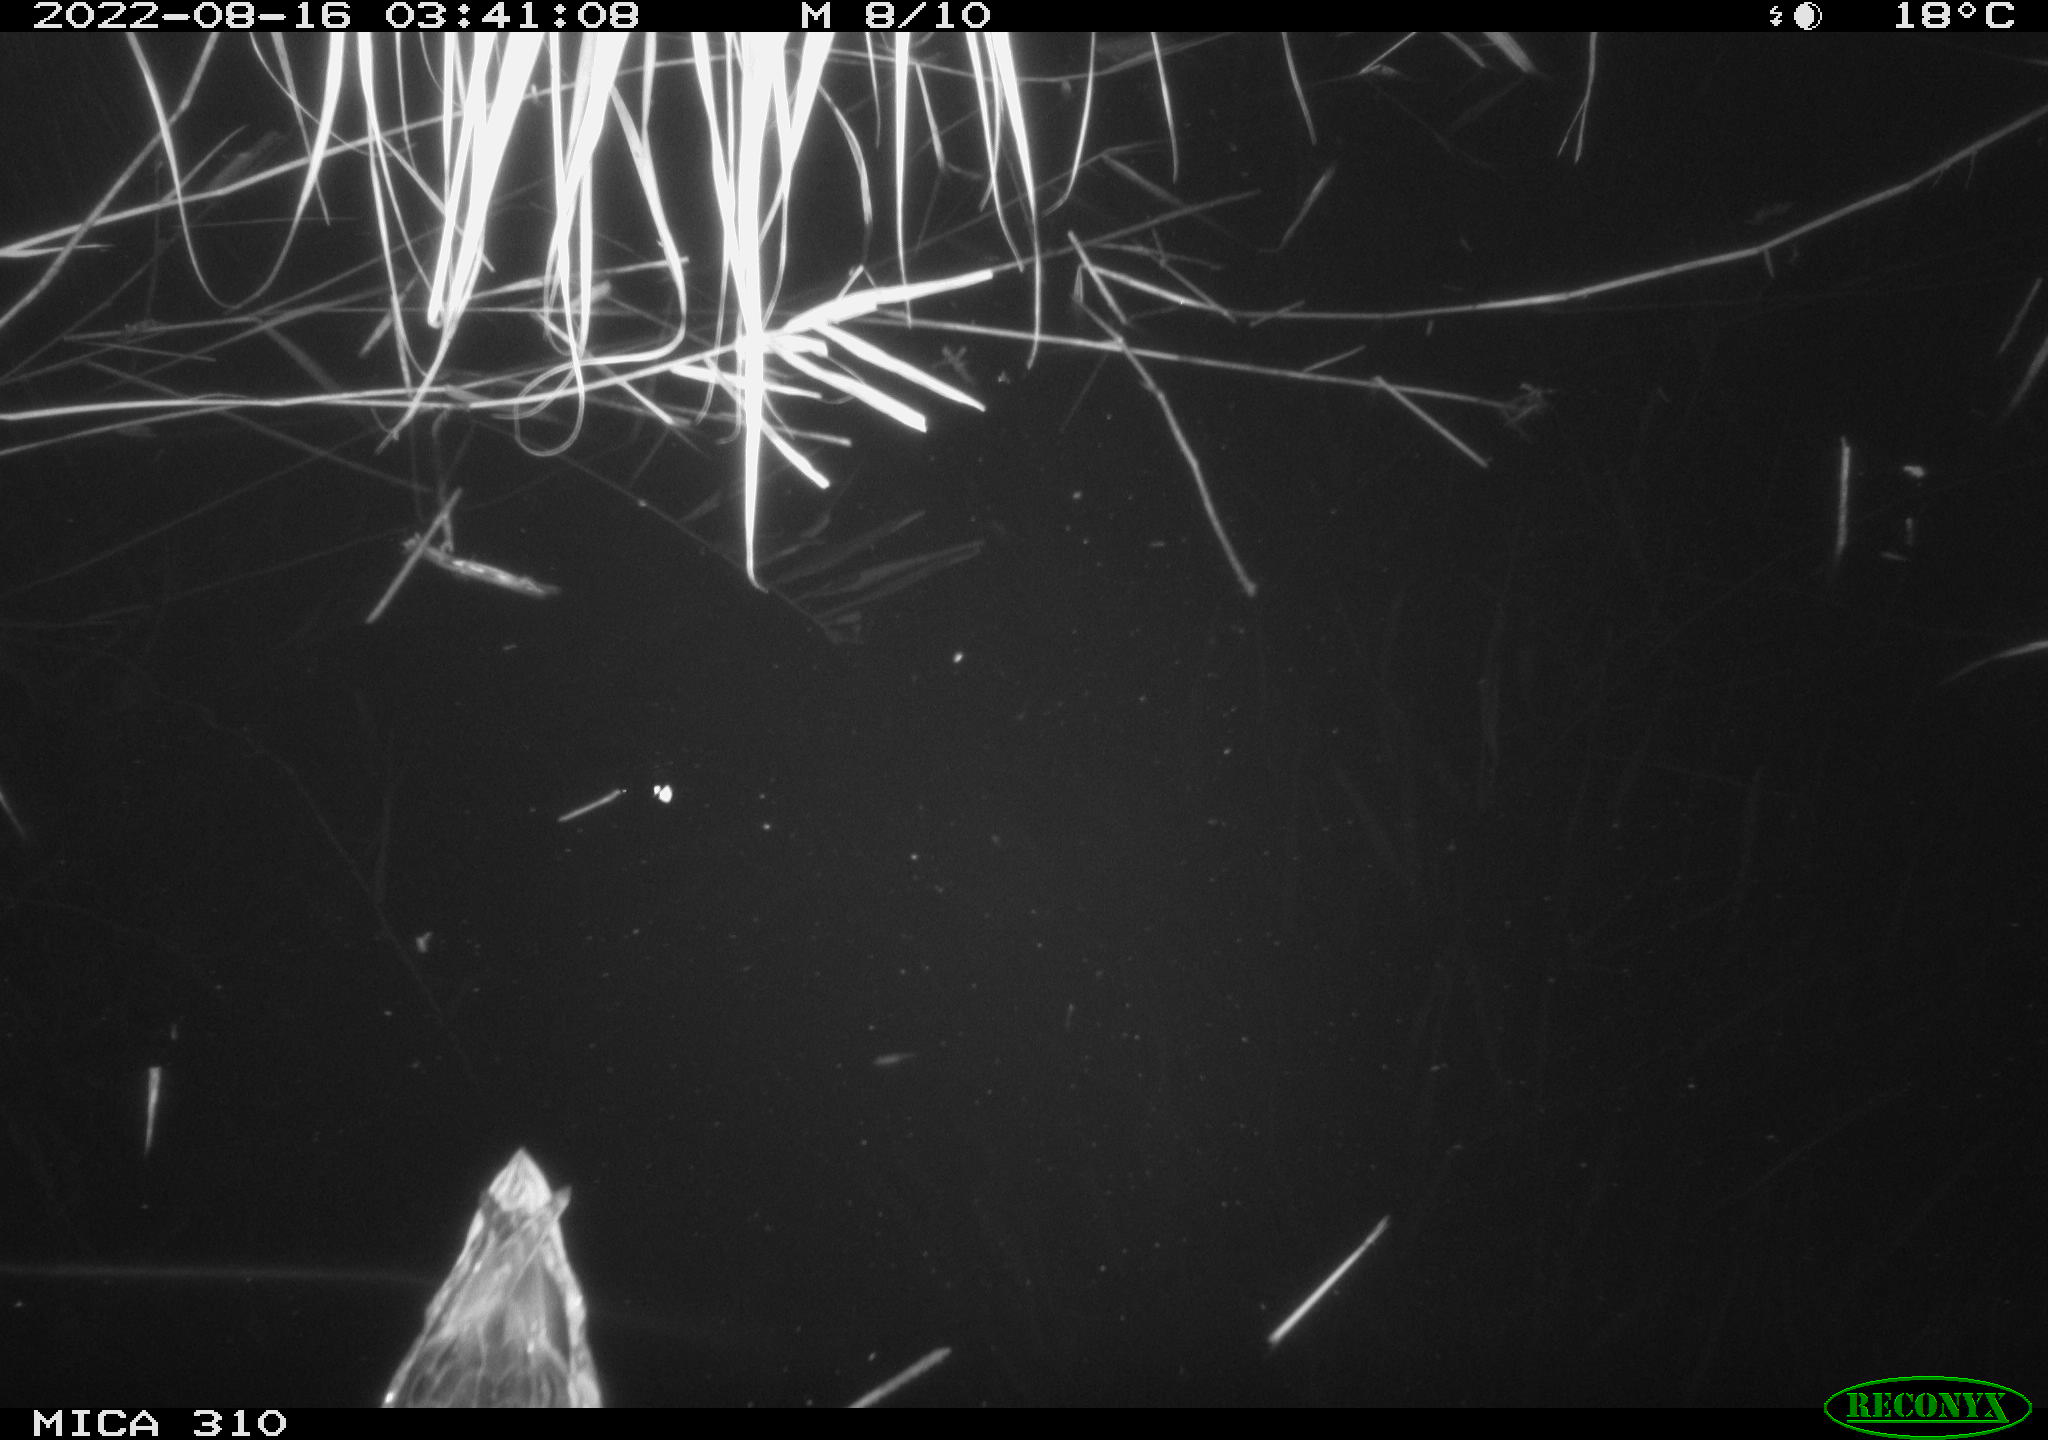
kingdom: Animalia
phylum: Chordata
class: Aves
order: Anseriformes
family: Anatidae
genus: Anas
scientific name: Anas platyrhynchos
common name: Mallard
